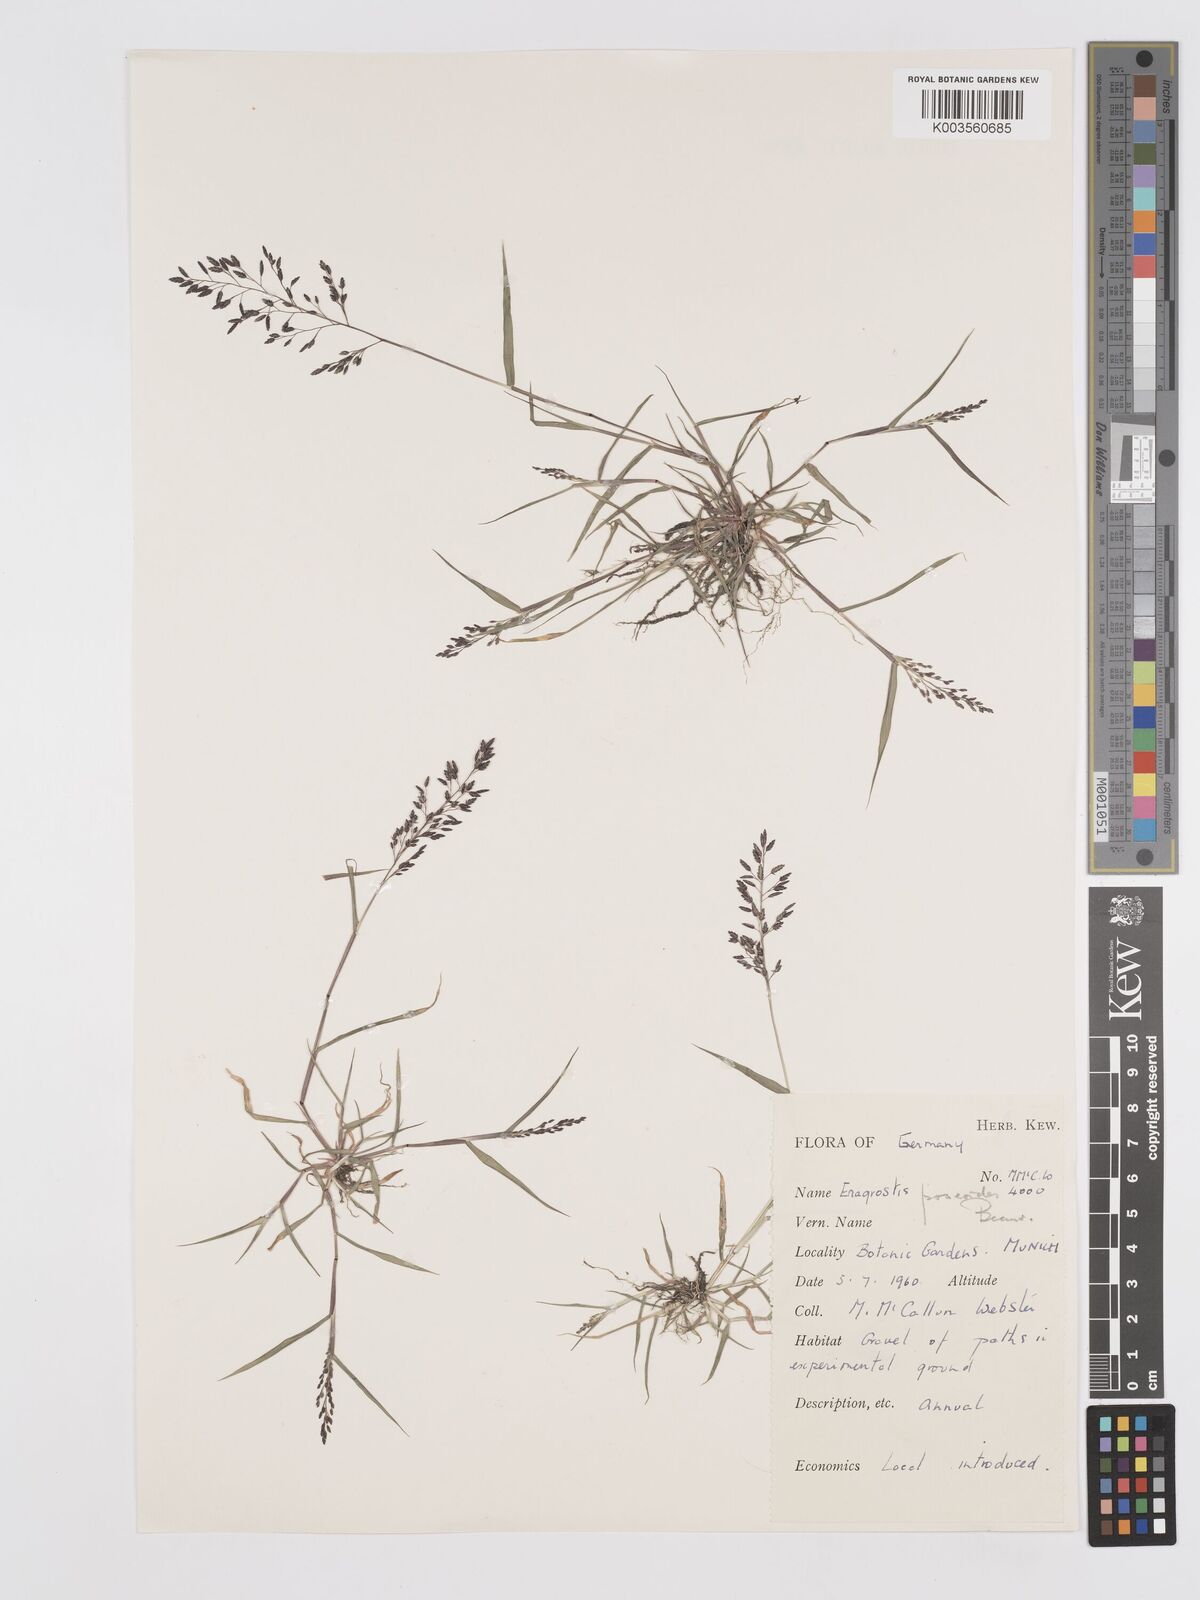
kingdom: Plantae
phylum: Tracheophyta
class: Liliopsida
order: Poales
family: Poaceae
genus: Eragrostis
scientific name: Eragrostis minor
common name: Small love-grass
